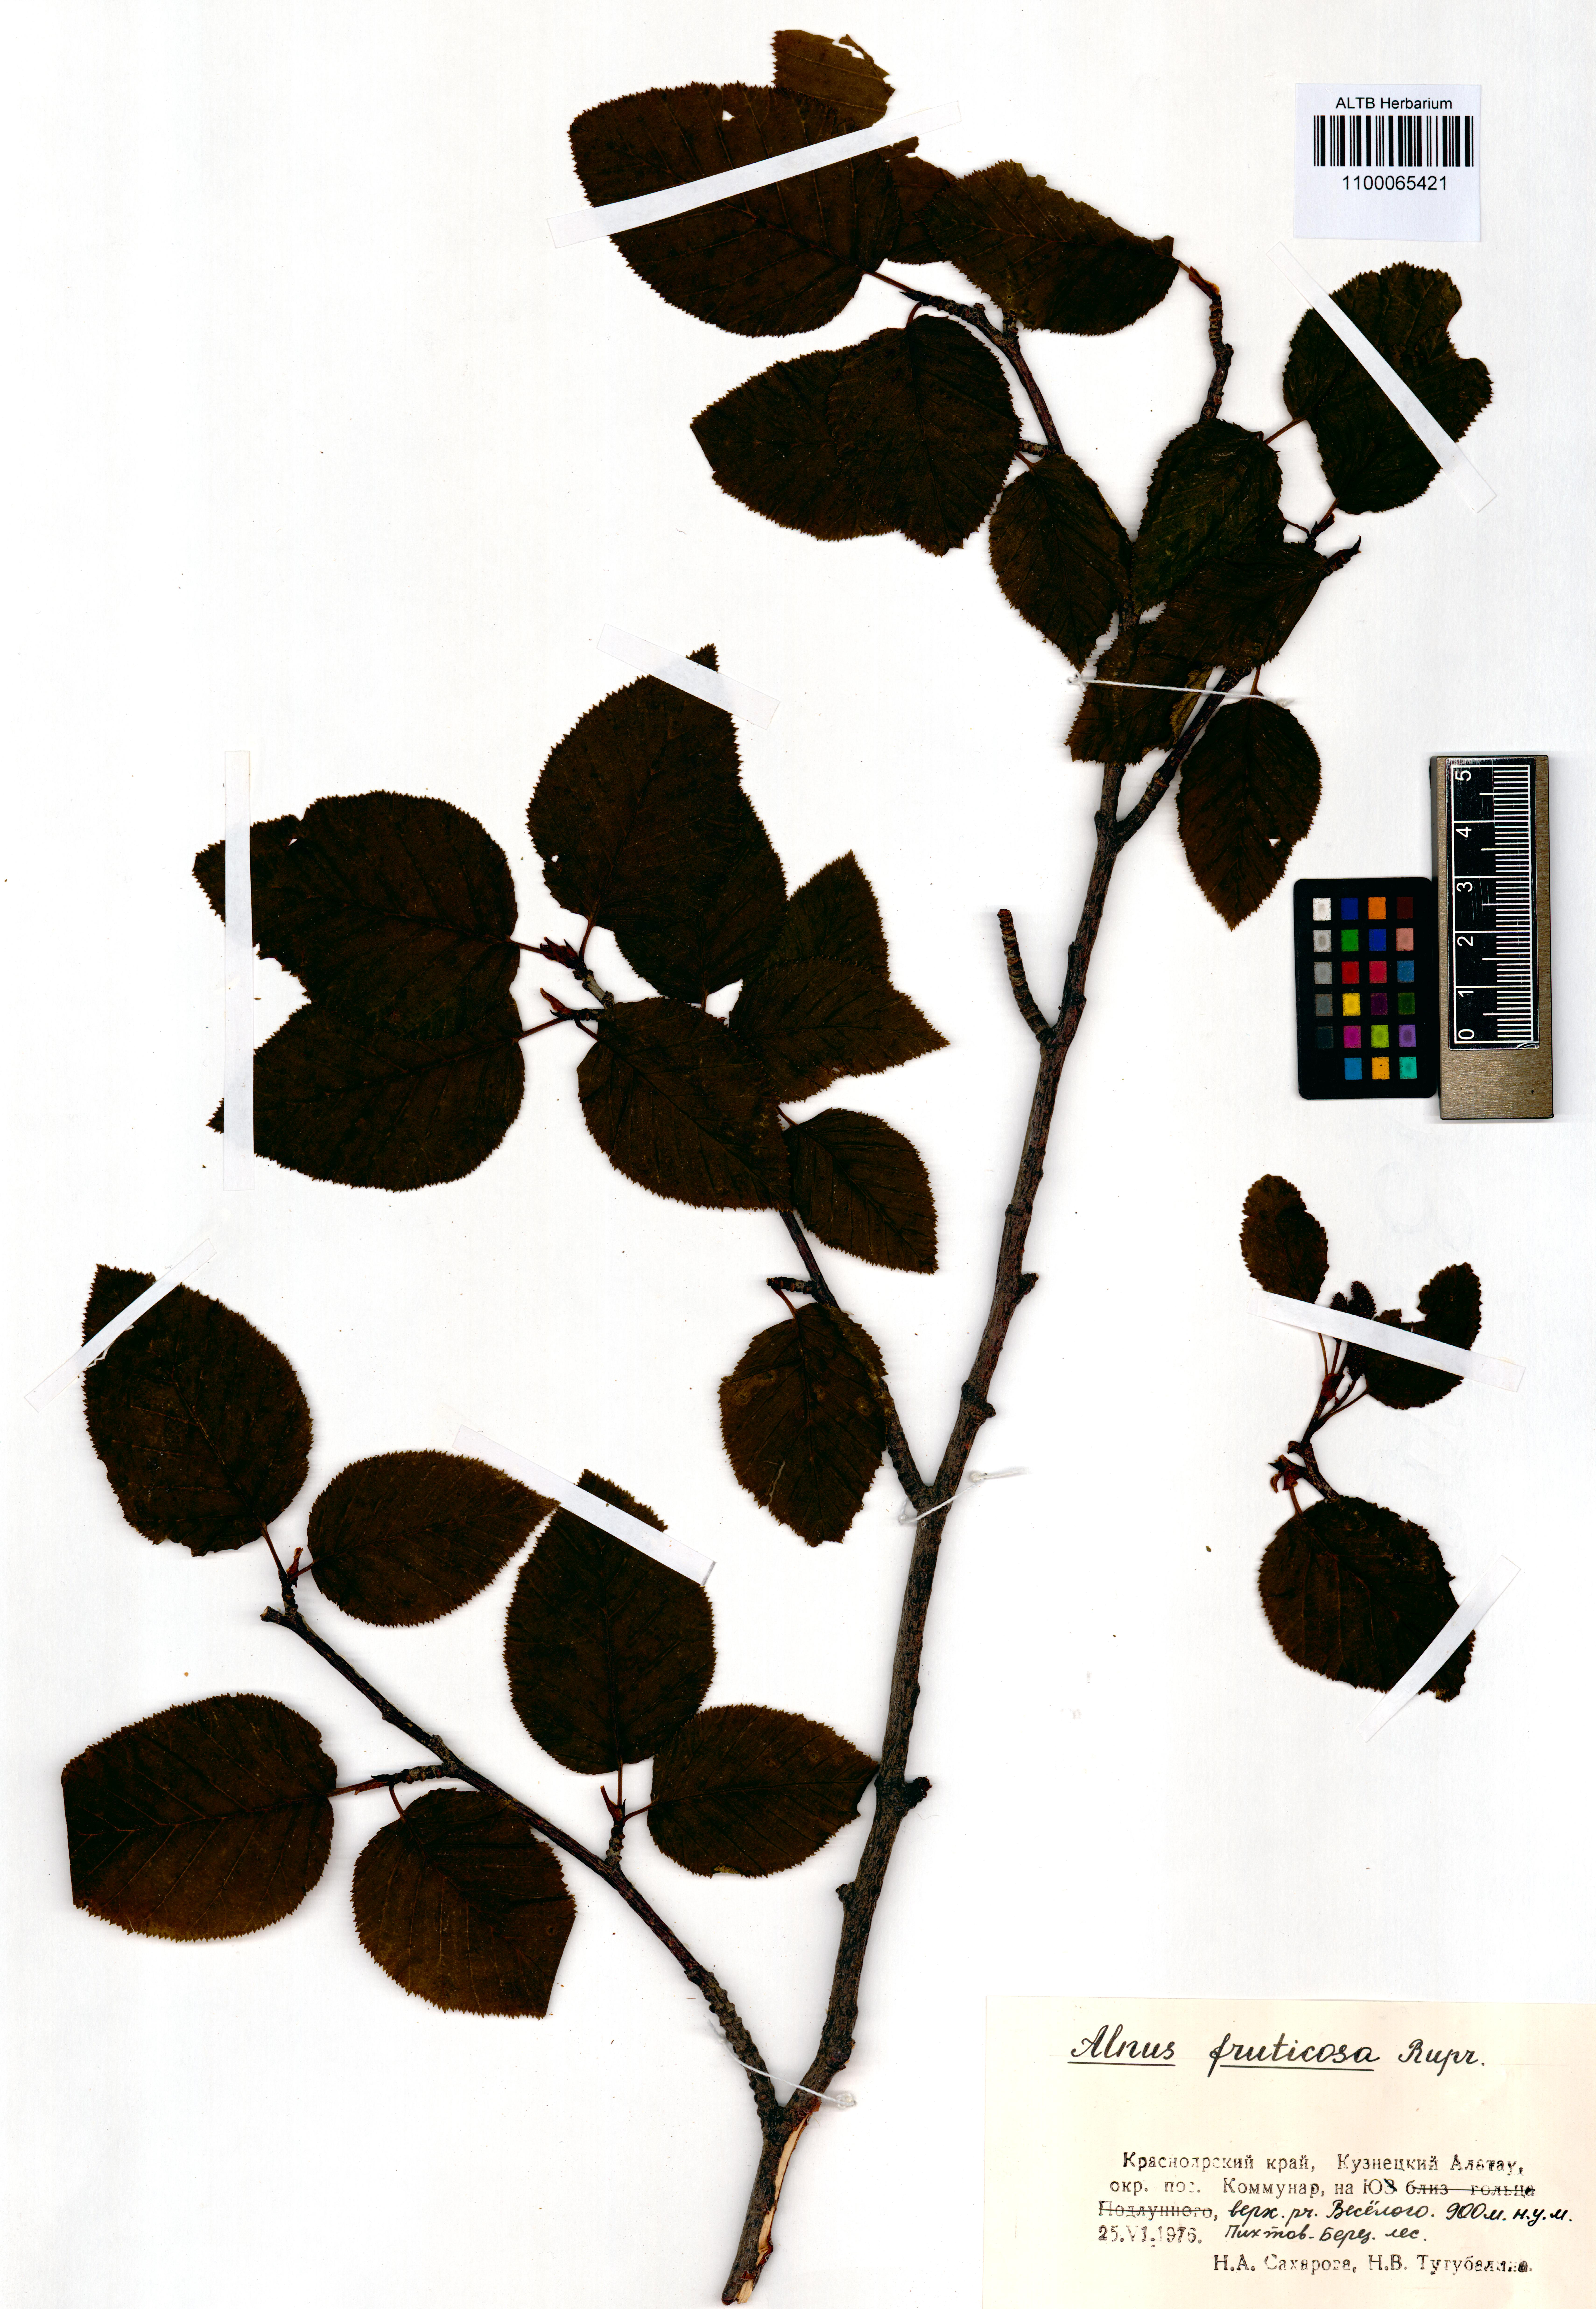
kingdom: Plantae
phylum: Tracheophyta
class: Magnoliopsida
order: Fagales
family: Betulaceae
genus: Alnus
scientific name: Alnus alnobetula
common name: Green alder
